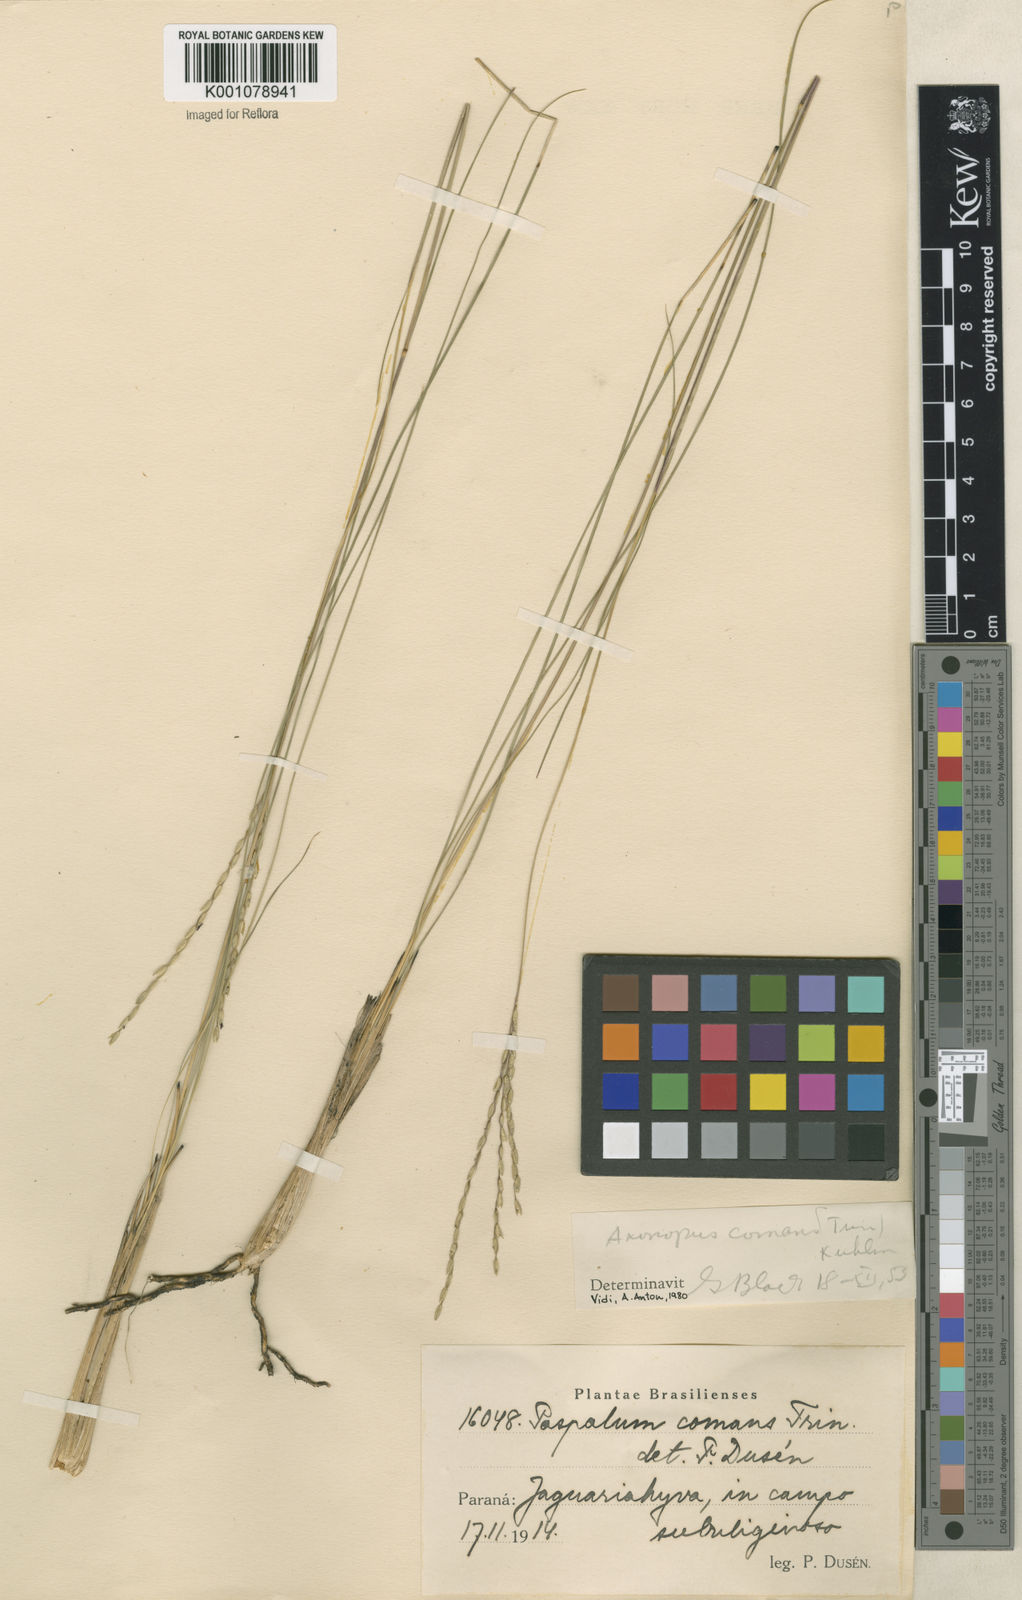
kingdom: Plantae
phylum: Tracheophyta
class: Liliopsida
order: Poales
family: Poaceae
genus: Axonopus
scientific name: Axonopus
